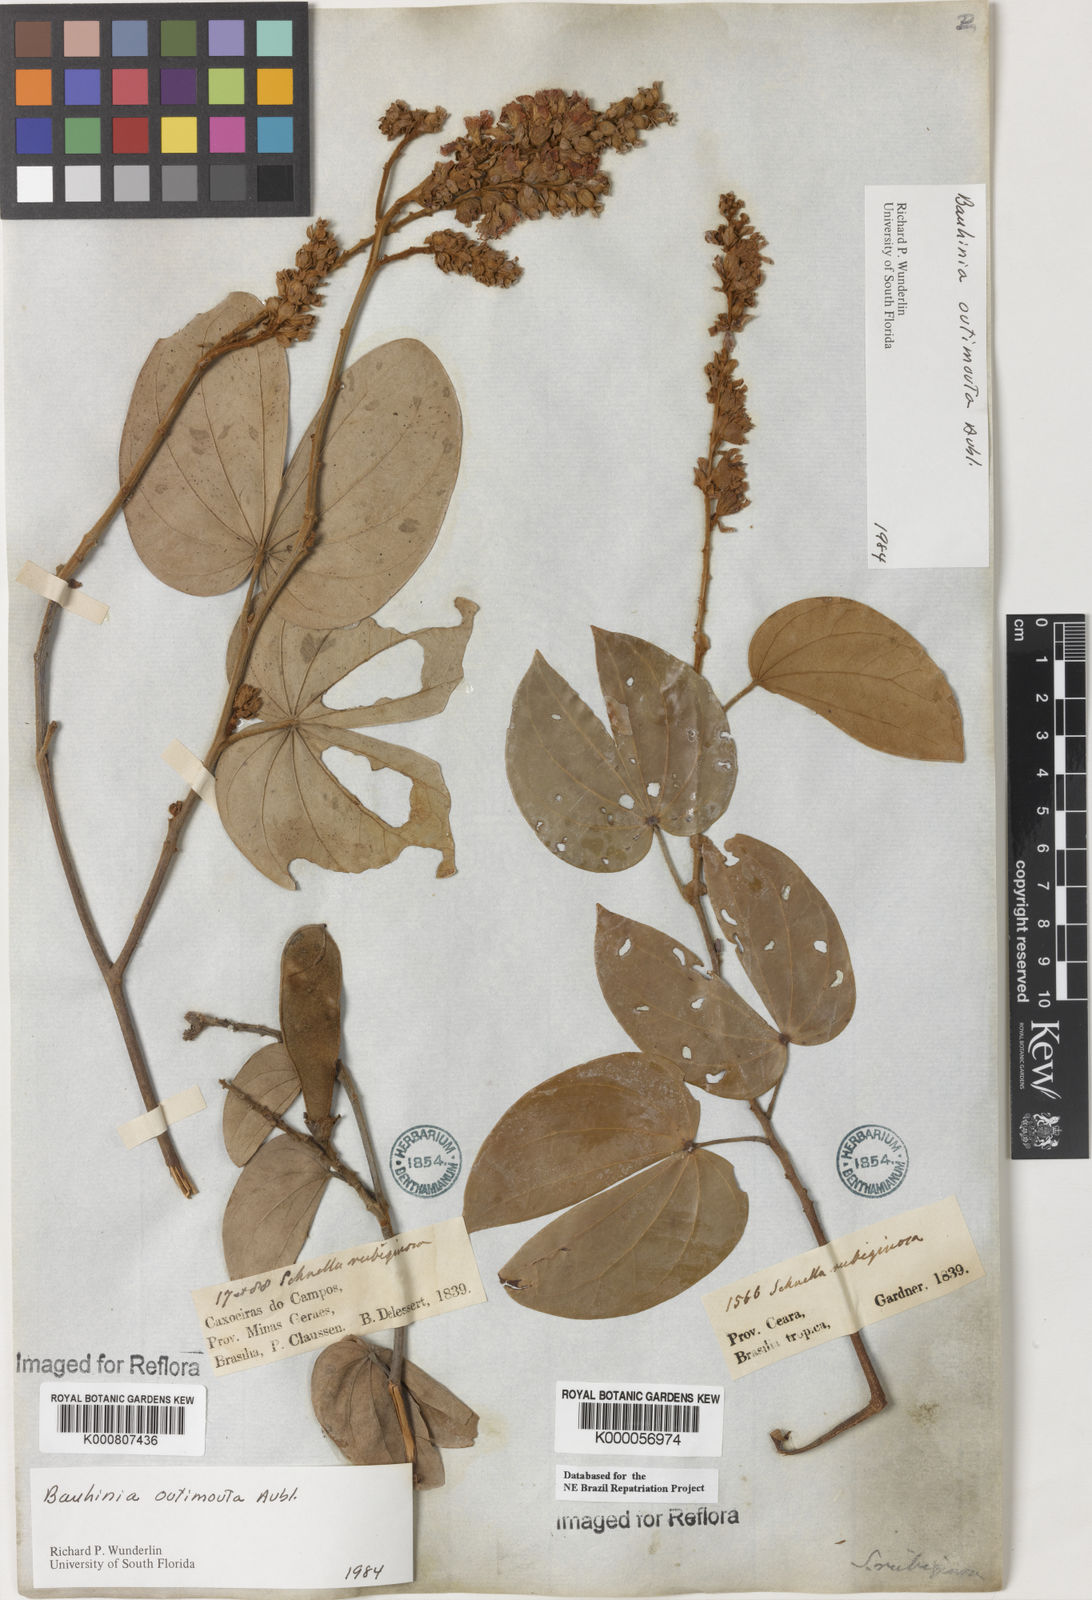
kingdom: Plantae
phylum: Tracheophyta
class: Magnoliopsida
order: Fabales
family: Fabaceae
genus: Schnella
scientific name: Schnella outimouta
